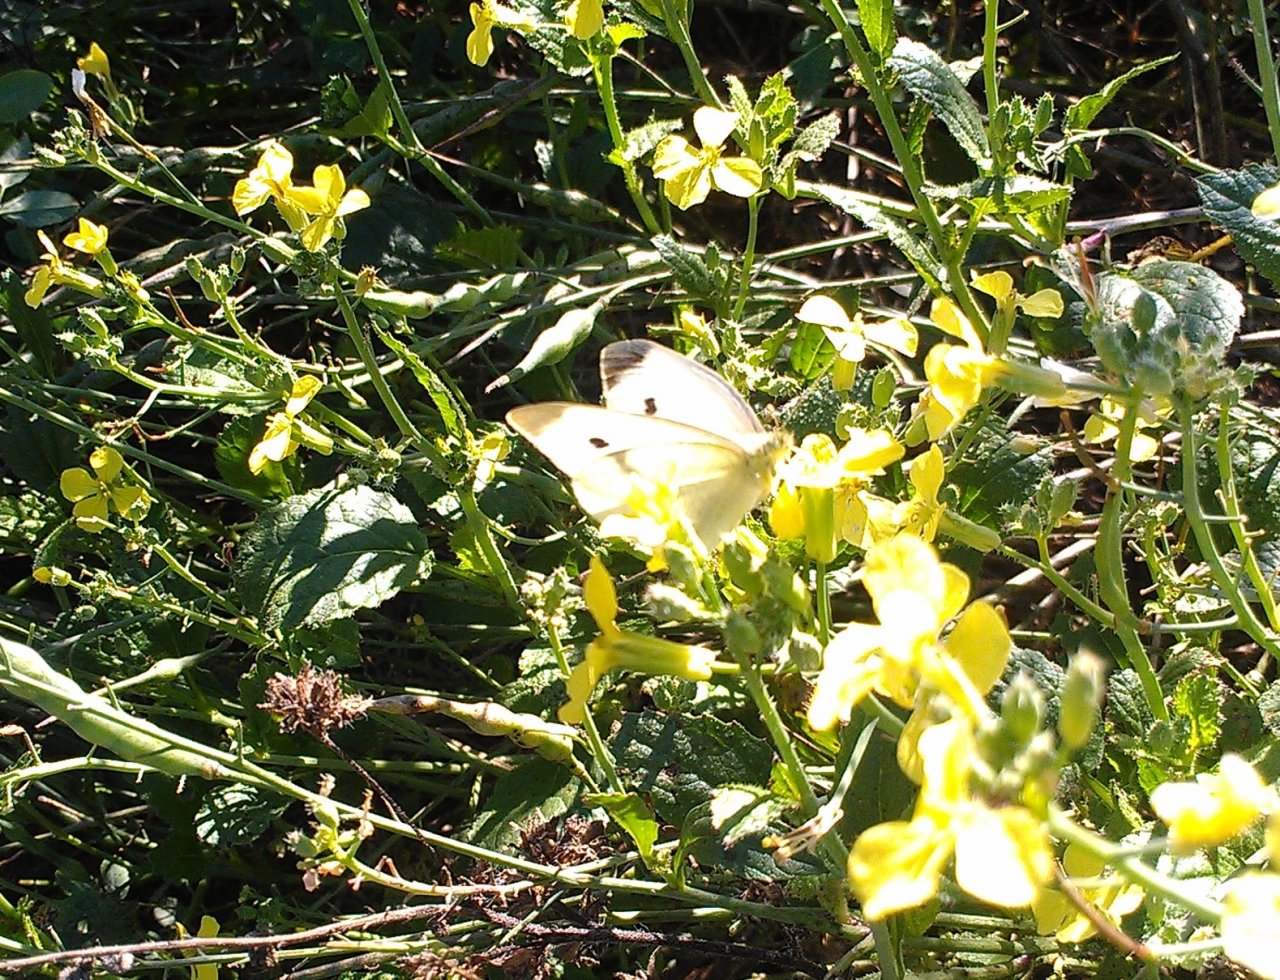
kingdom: Animalia
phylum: Arthropoda
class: Insecta
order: Lepidoptera
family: Pieridae
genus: Pieris
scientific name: Pieris rapae
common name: Cabbage White
